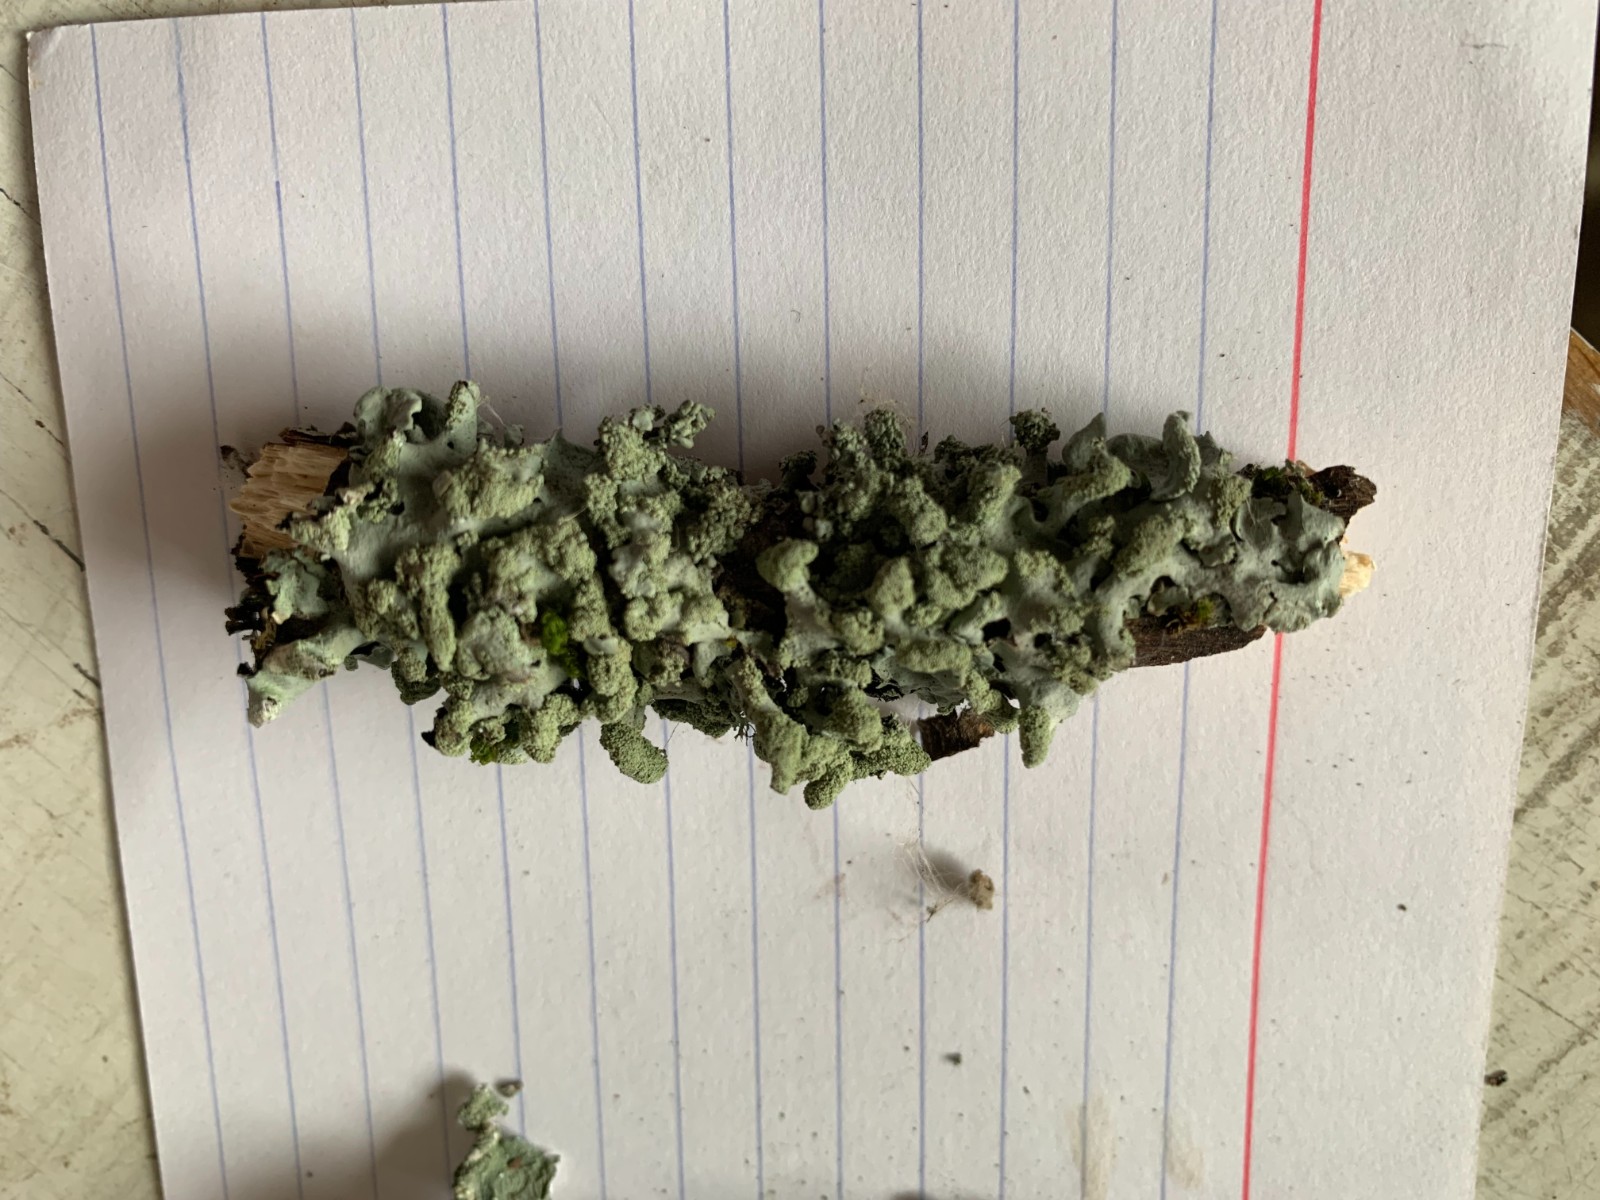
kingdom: Fungi
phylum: Ascomycota
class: Lecanoromycetes
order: Lecanorales
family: Parmeliaceae
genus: Hypotrachyna
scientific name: Hypotrachyna afrorevoluta
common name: kyst-skållav
